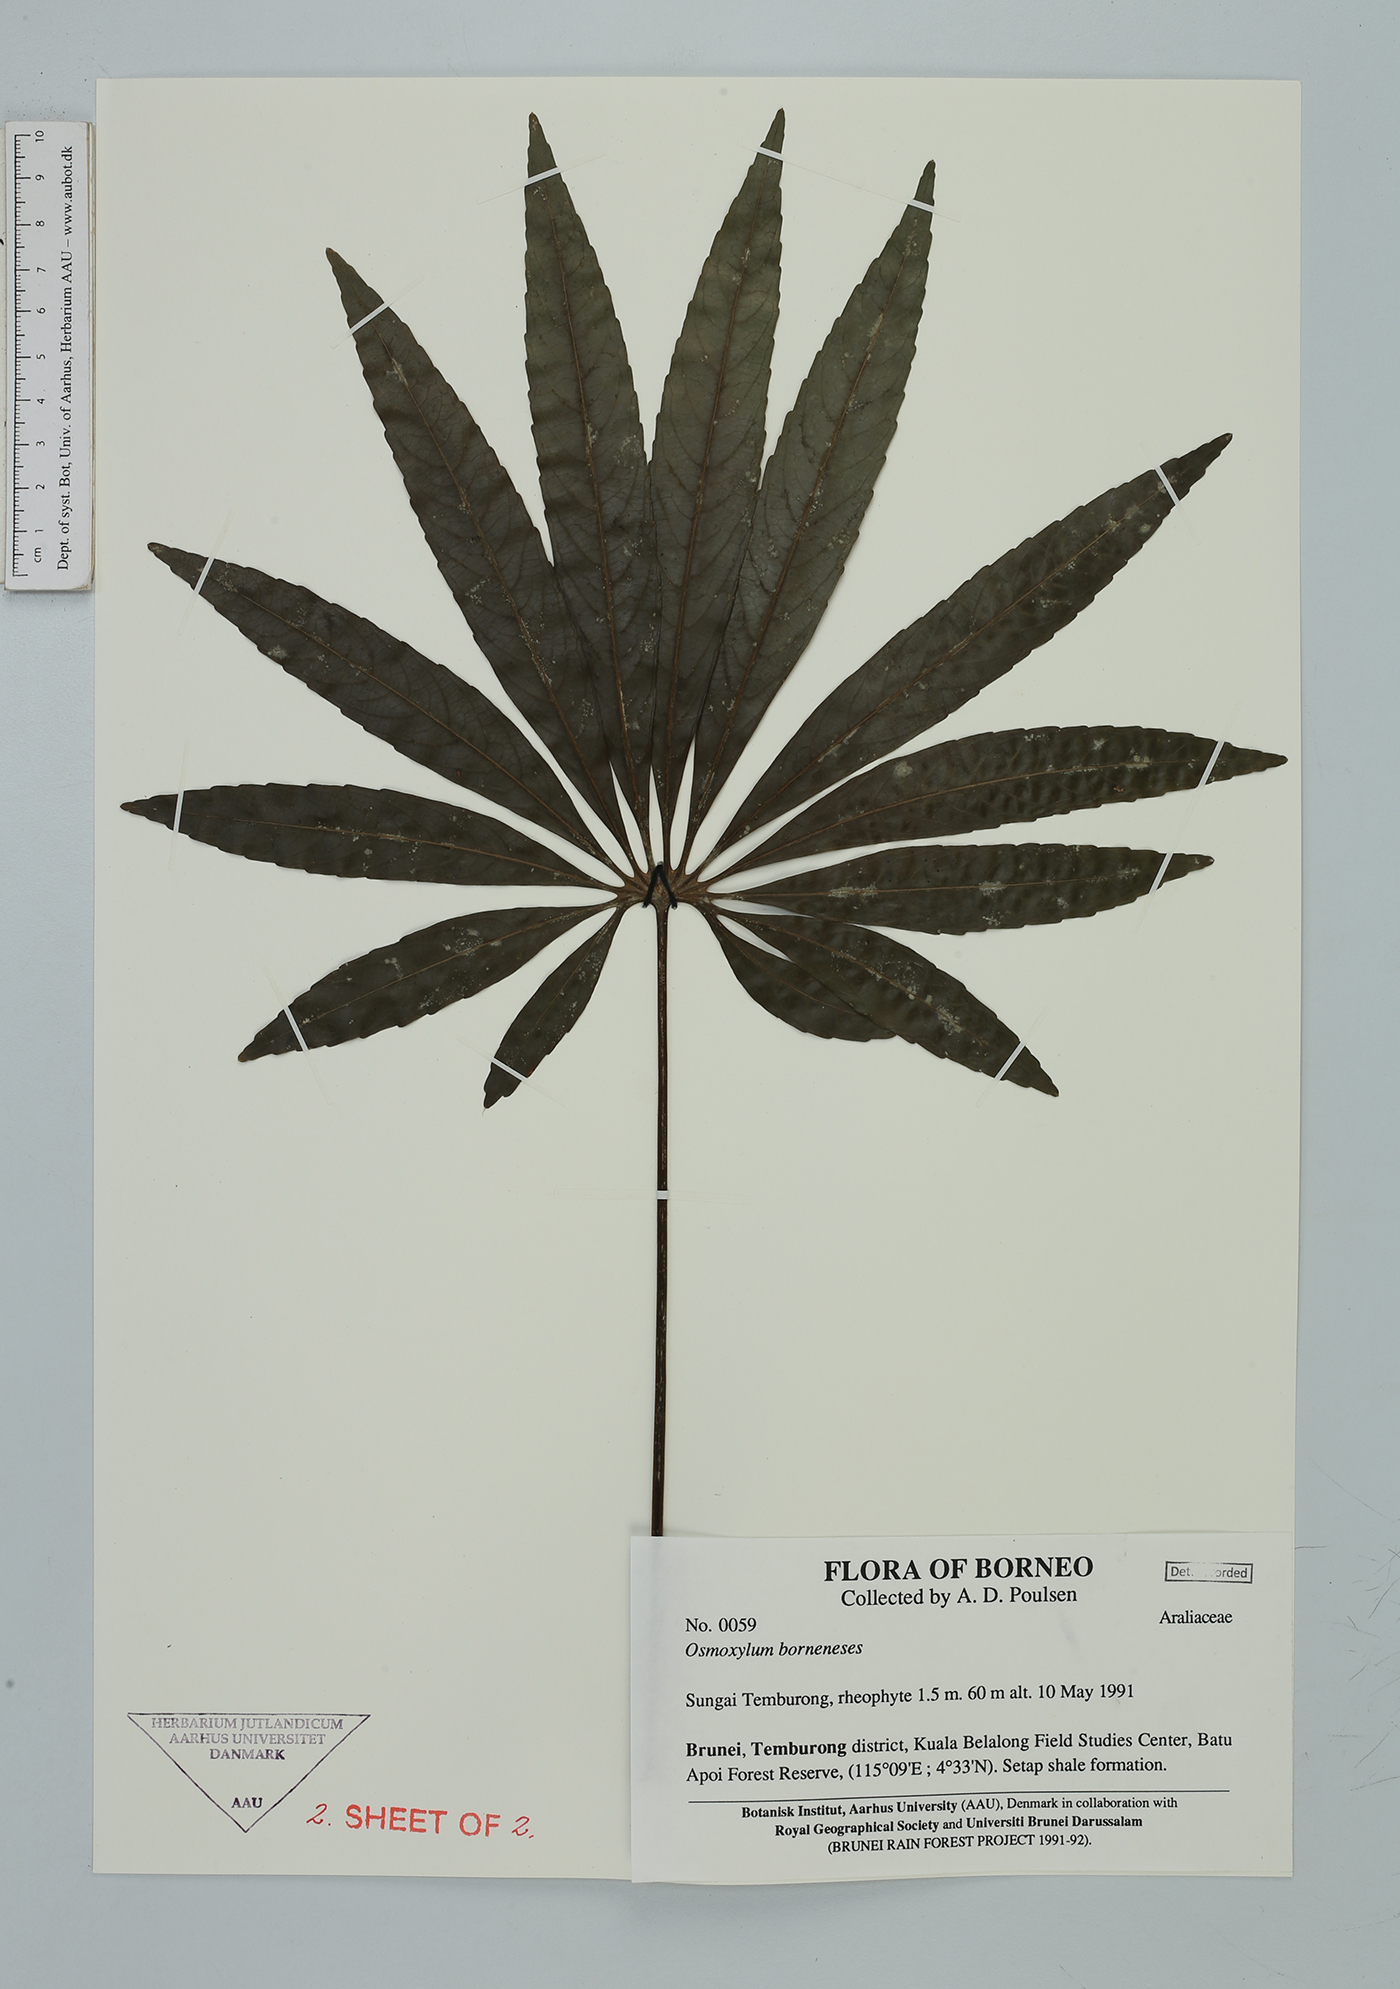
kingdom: Plantae
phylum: Tracheophyta
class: Magnoliopsida
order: Apiales
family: Araliaceae
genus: Osmoxylon
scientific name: Osmoxylon borneense
